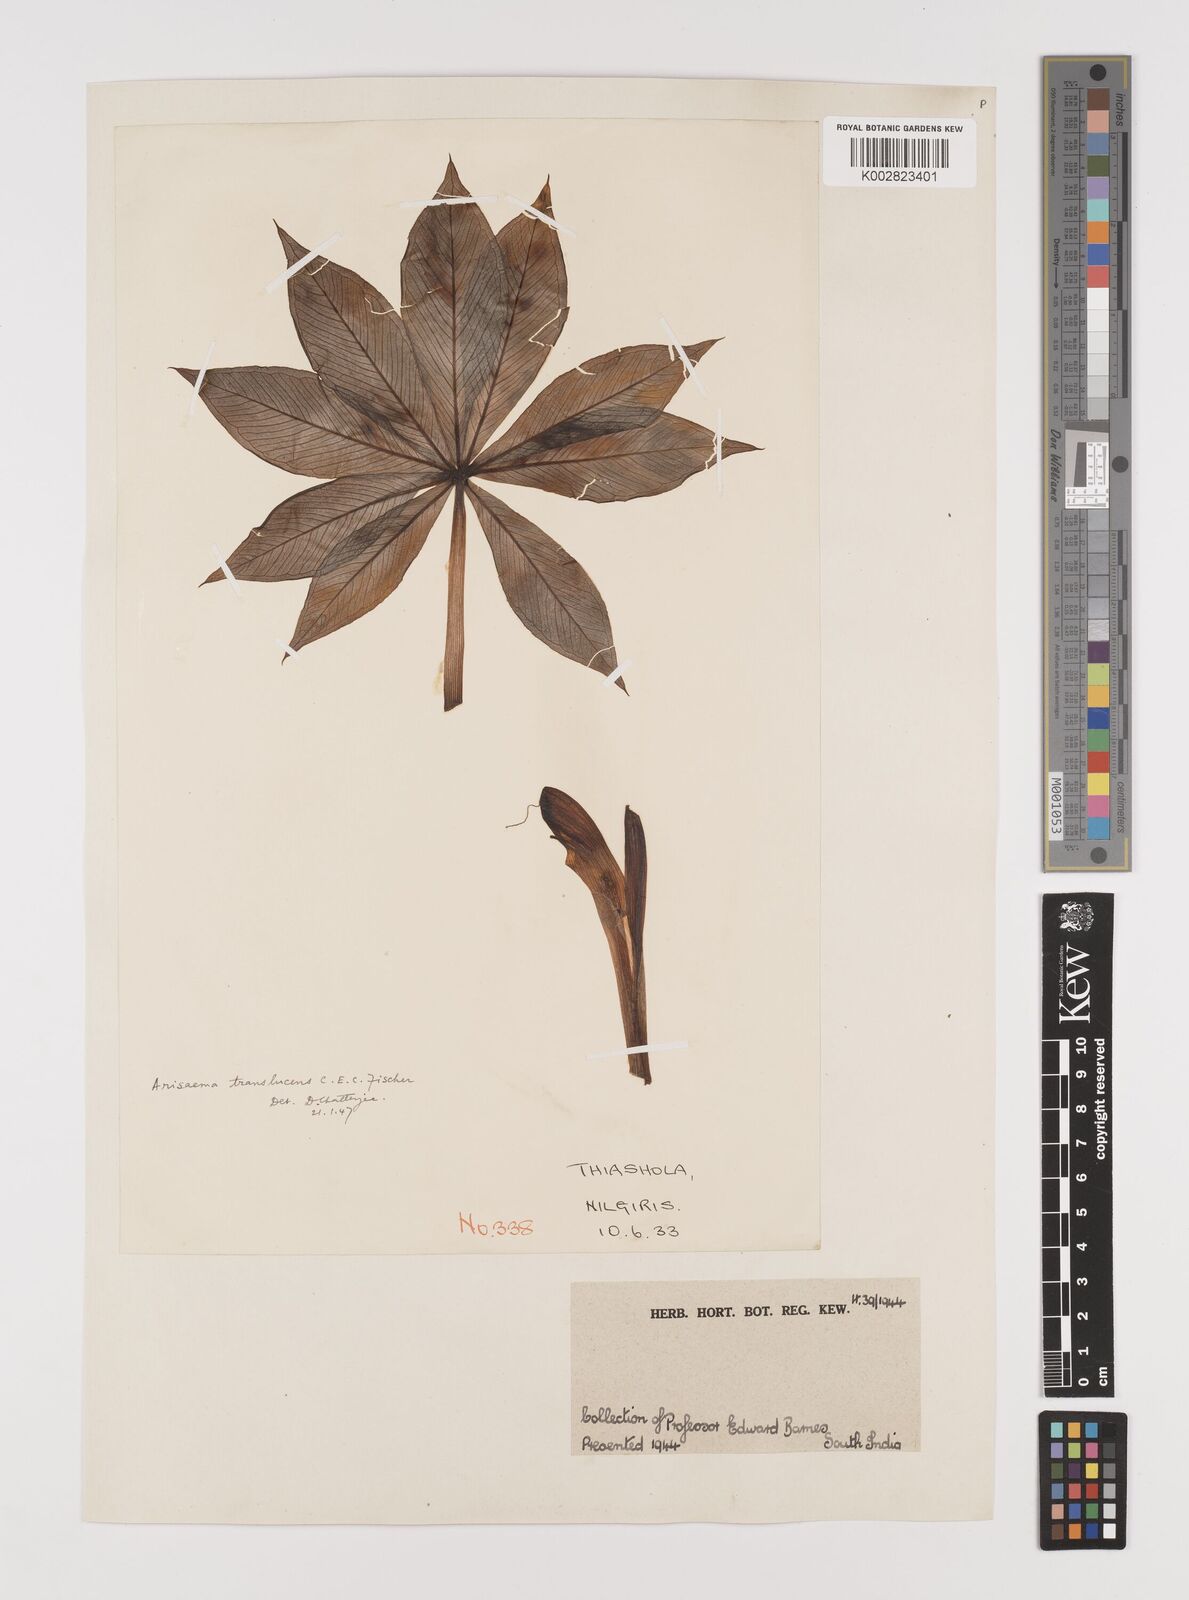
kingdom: Plantae
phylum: Tracheophyta
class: Liliopsida
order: Alismatales
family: Araceae
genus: Arisaema
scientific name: Arisaema translucens
